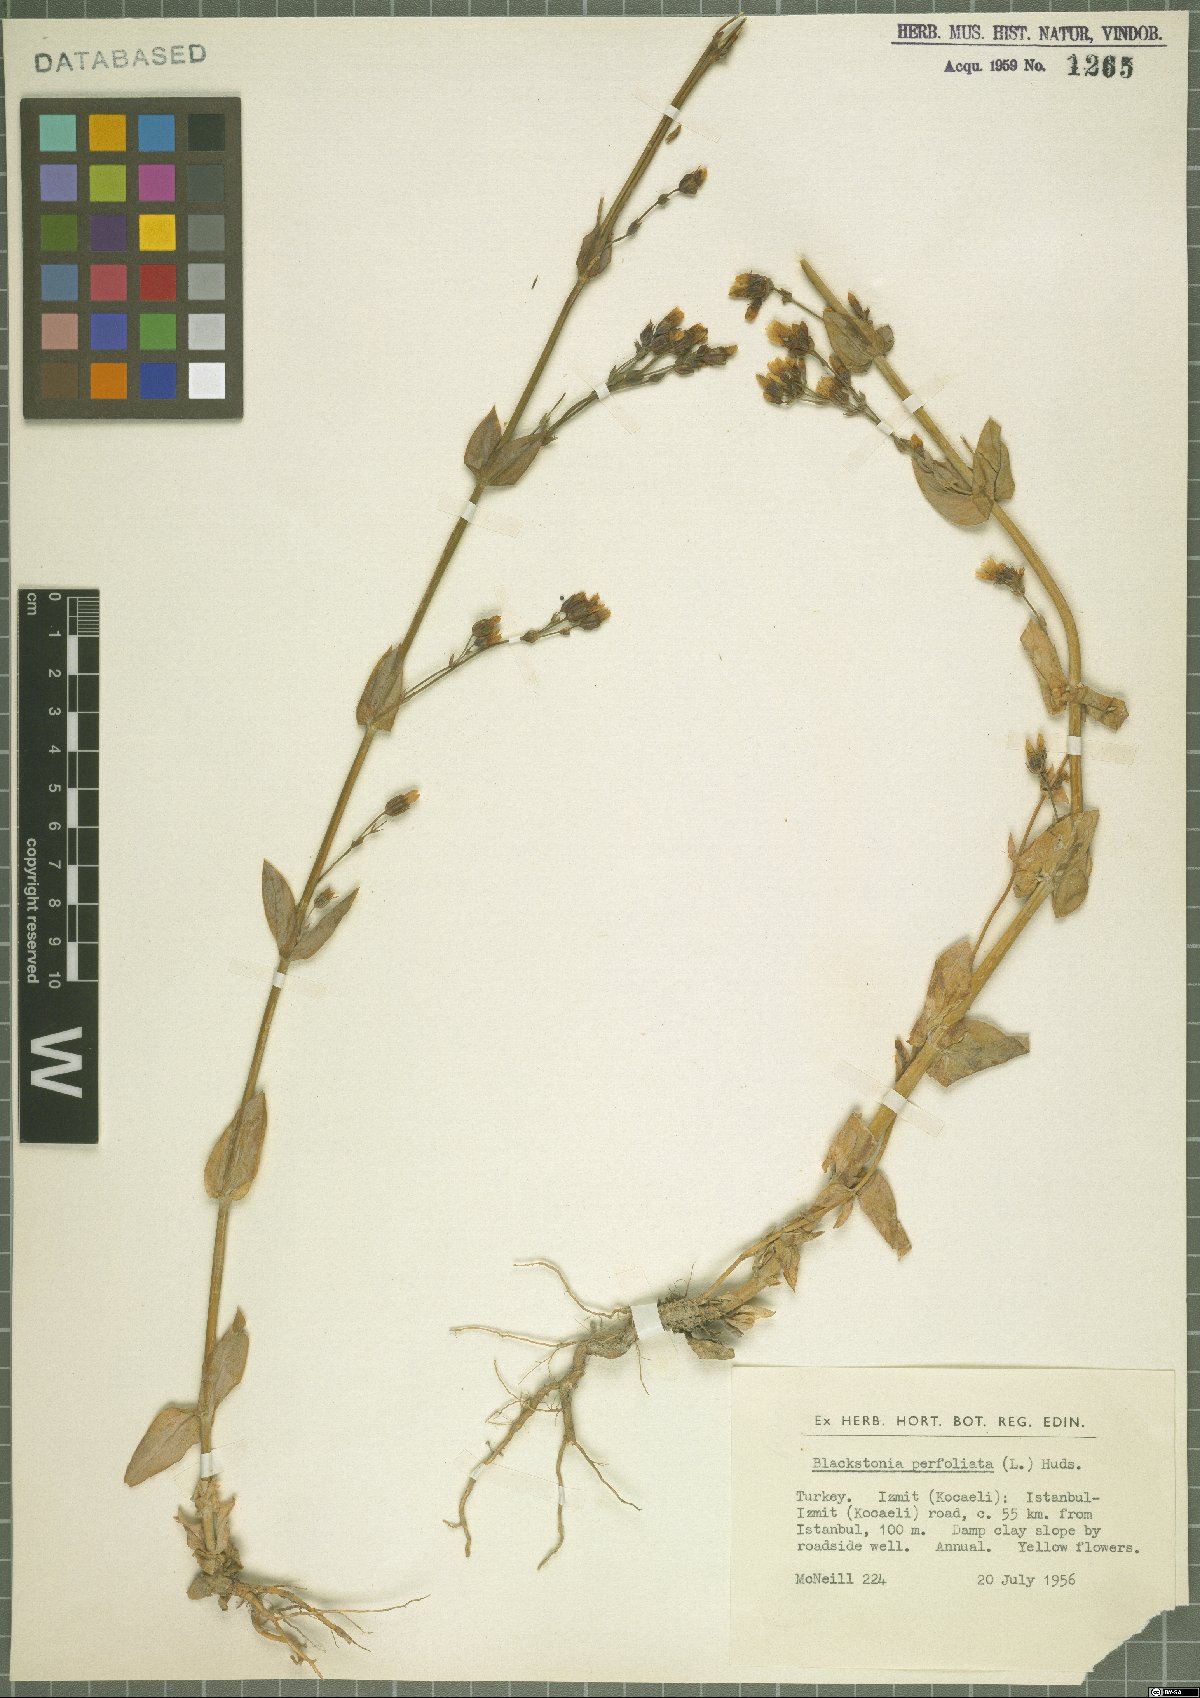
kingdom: Plantae
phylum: Tracheophyta
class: Magnoliopsida
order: Gentianales
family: Gentianaceae
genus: Blackstonia
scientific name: Blackstonia perfoliata
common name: Yellow-wort
